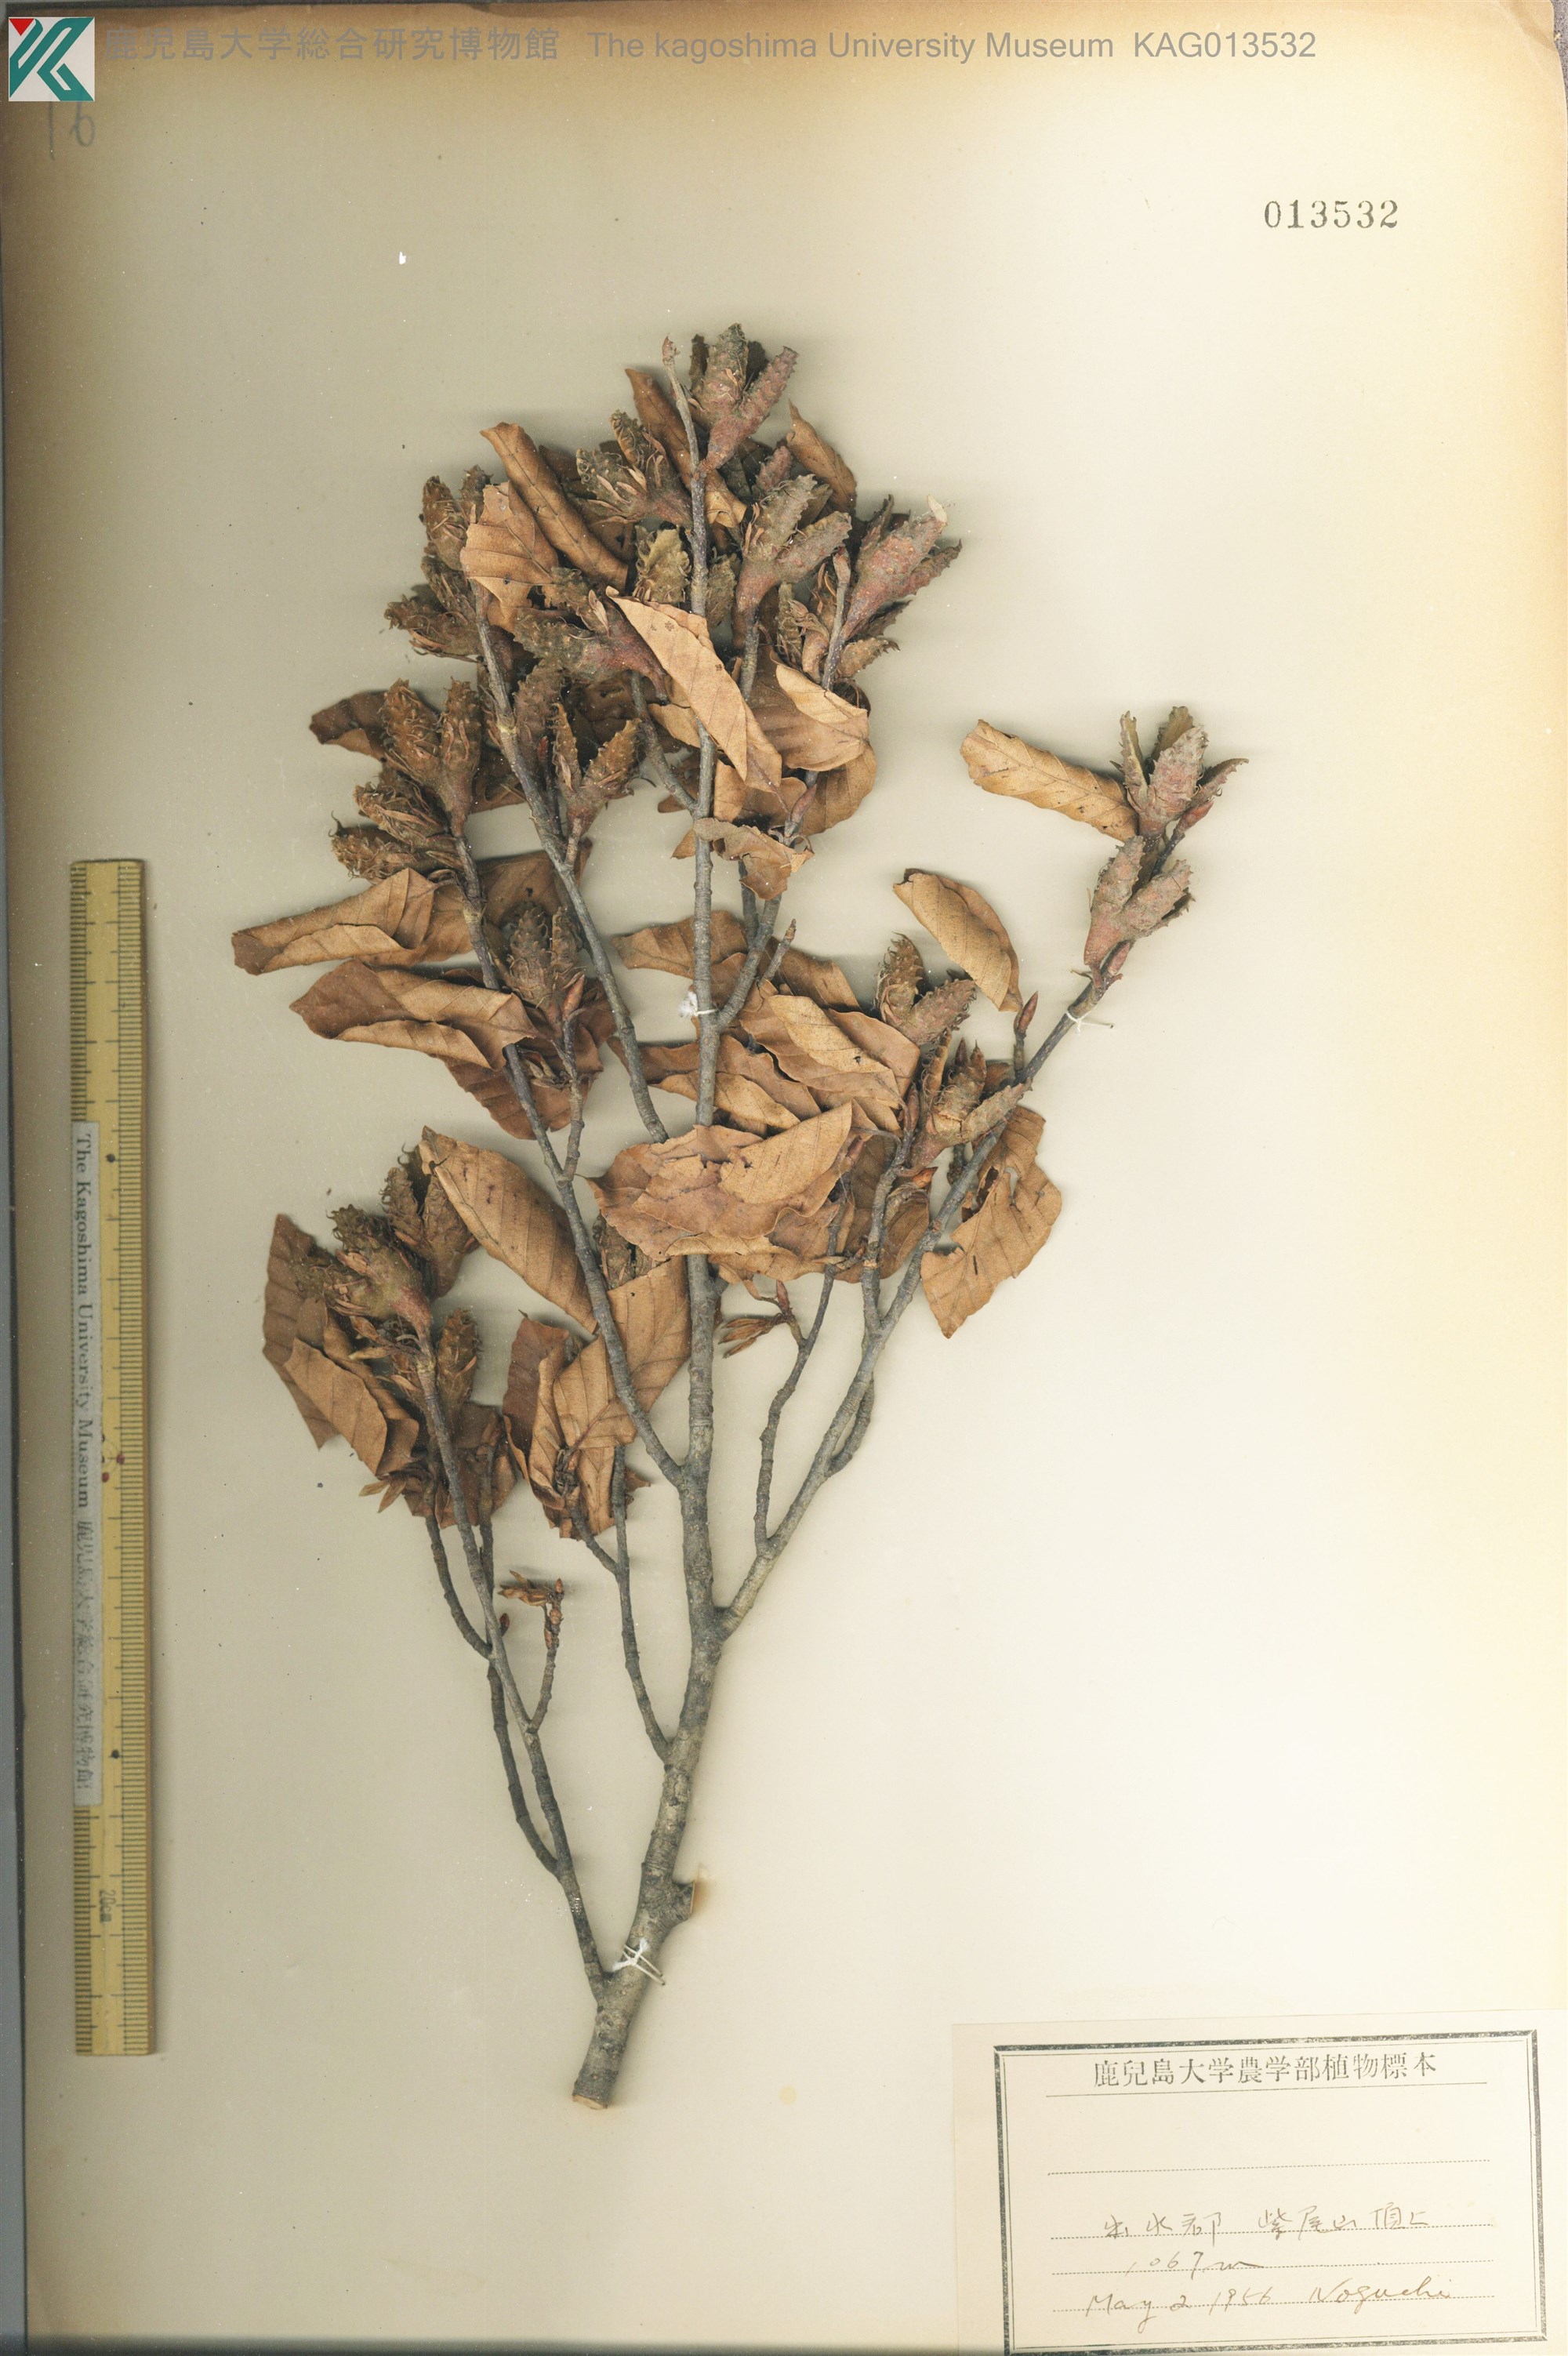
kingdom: Plantae
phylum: Tracheophyta
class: Magnoliopsida
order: Fagales
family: Fagaceae
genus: Fagus
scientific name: Fagus crenata
